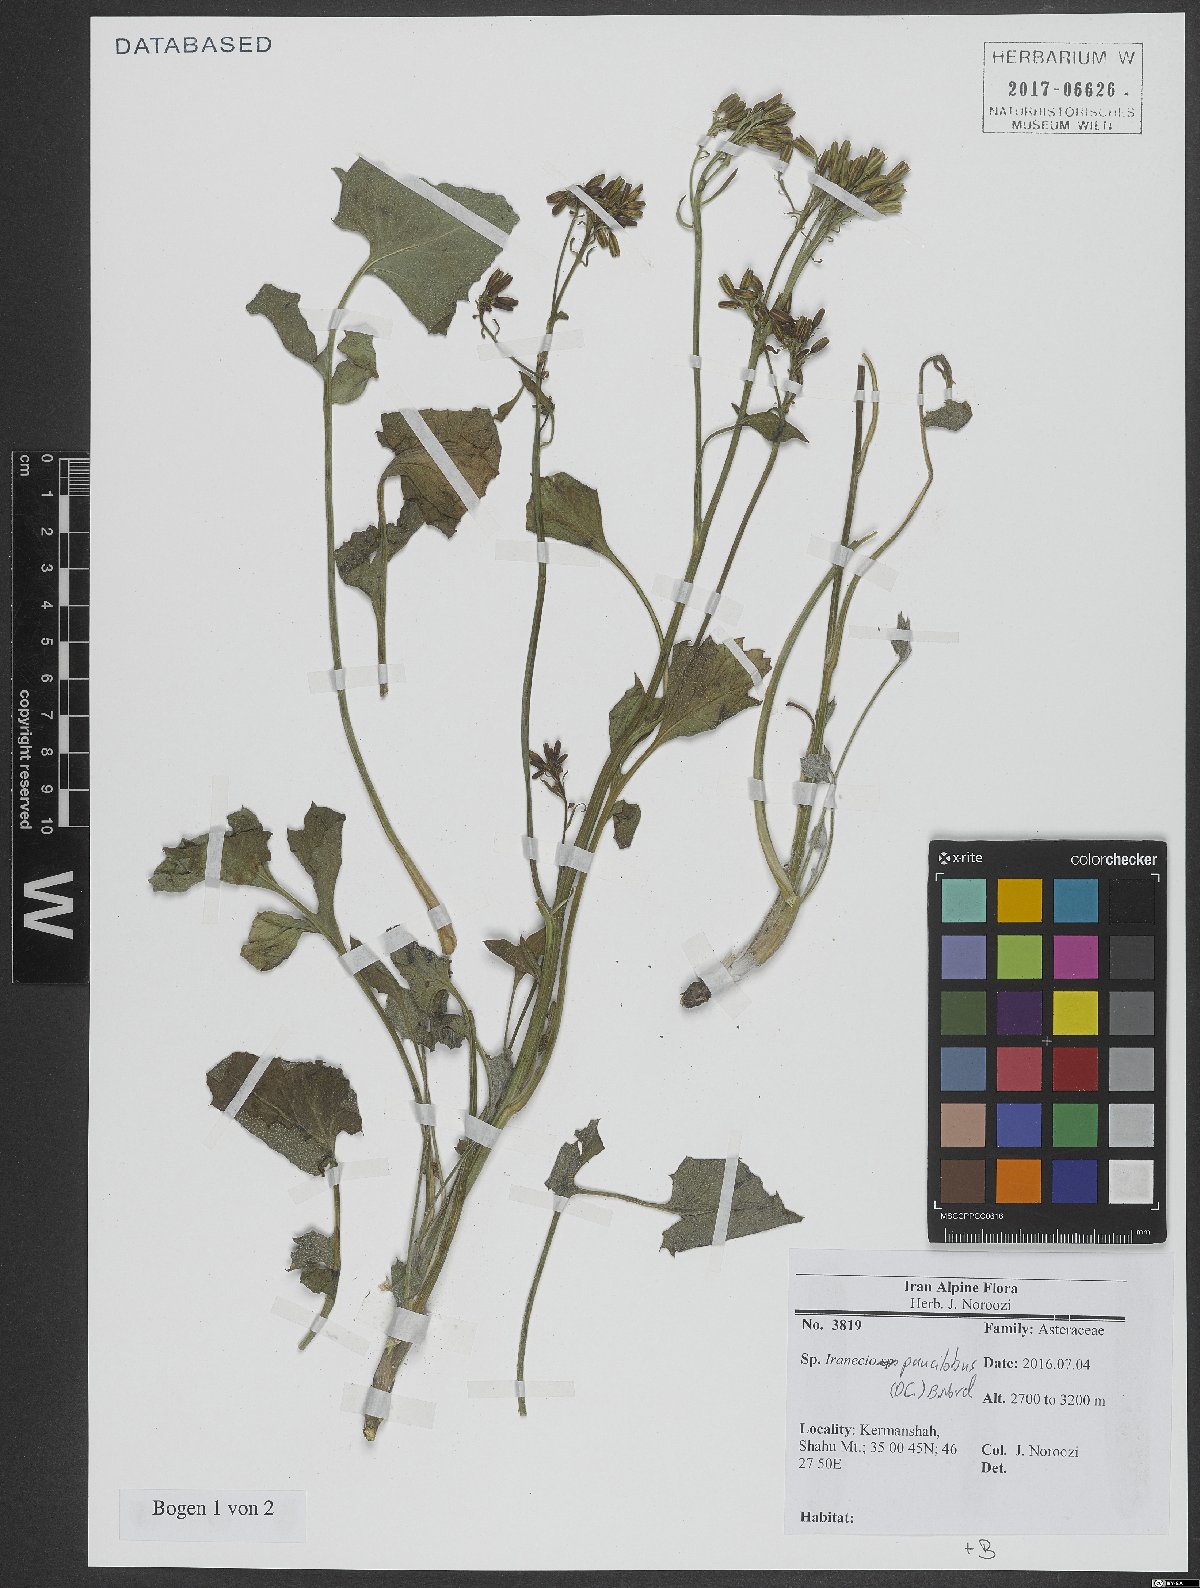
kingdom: Plantae
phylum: Tracheophyta
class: Magnoliopsida
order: Asterales
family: Asteraceae
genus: Iranecio
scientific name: Iranecio paucilobus
